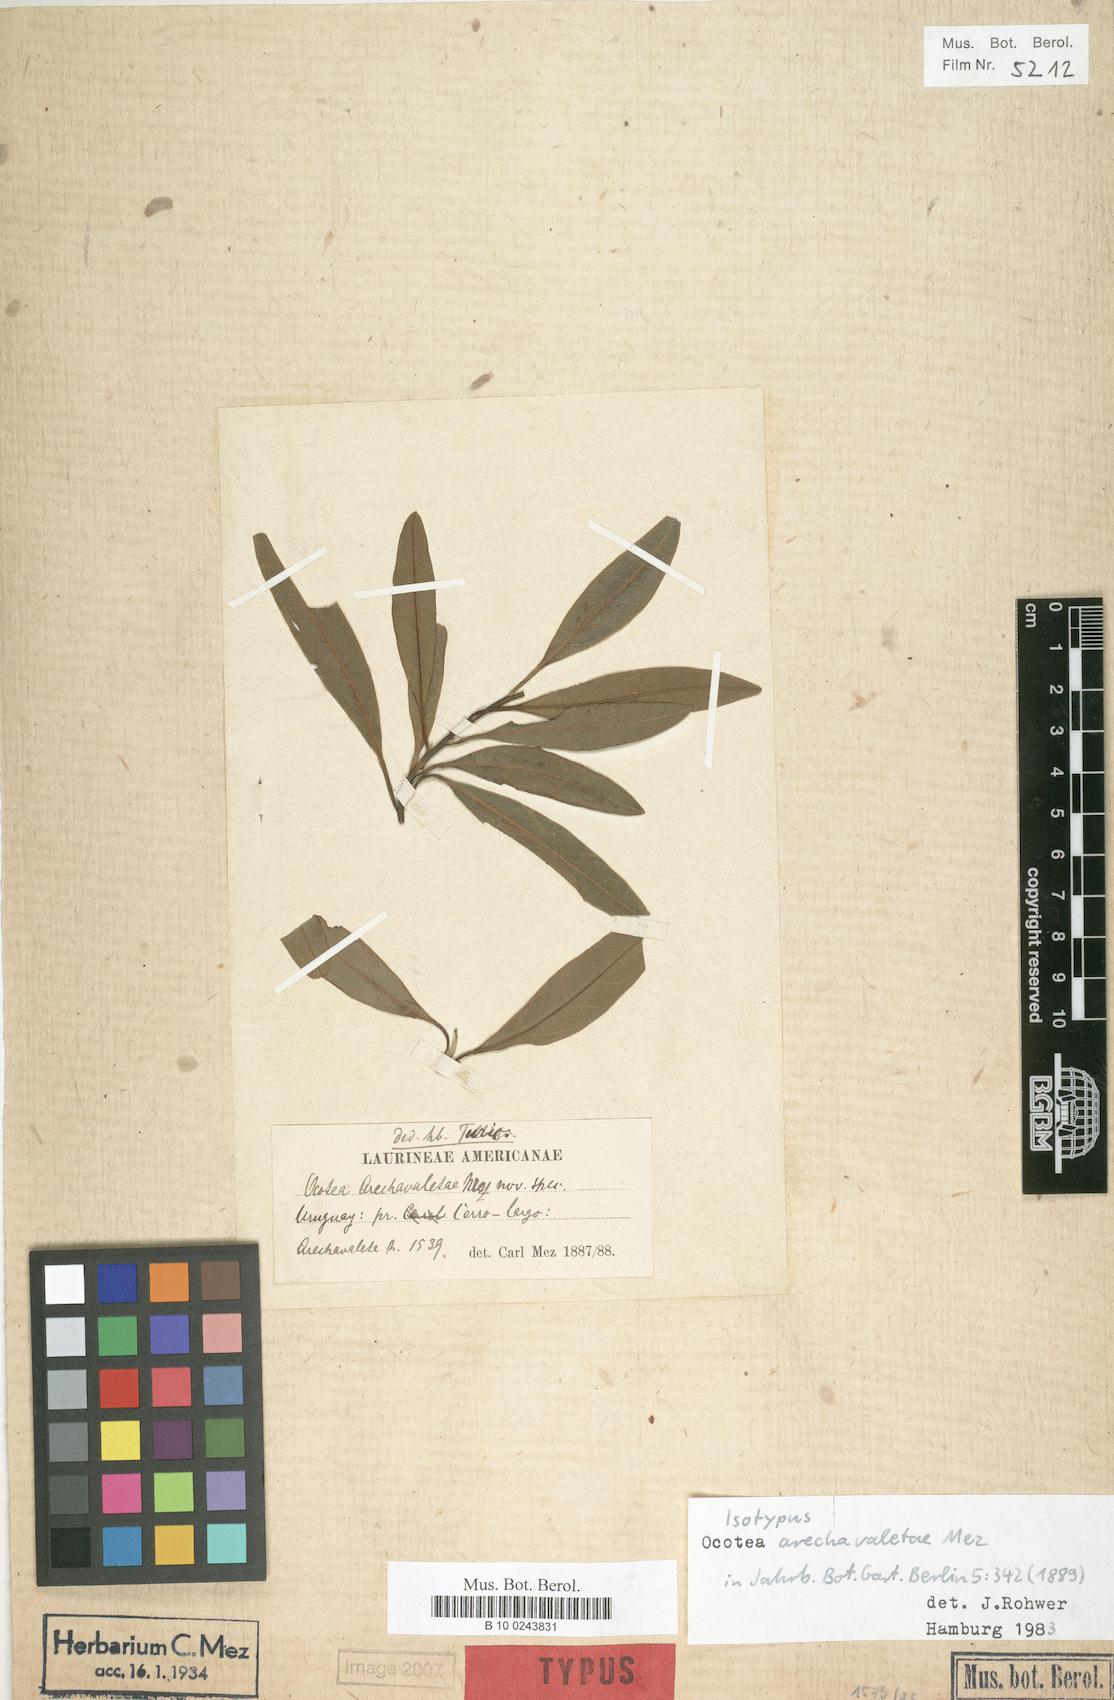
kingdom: Plantae
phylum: Tracheophyta
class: Magnoliopsida
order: Laurales
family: Lauraceae
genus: Ocotea
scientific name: Ocotea puberula
